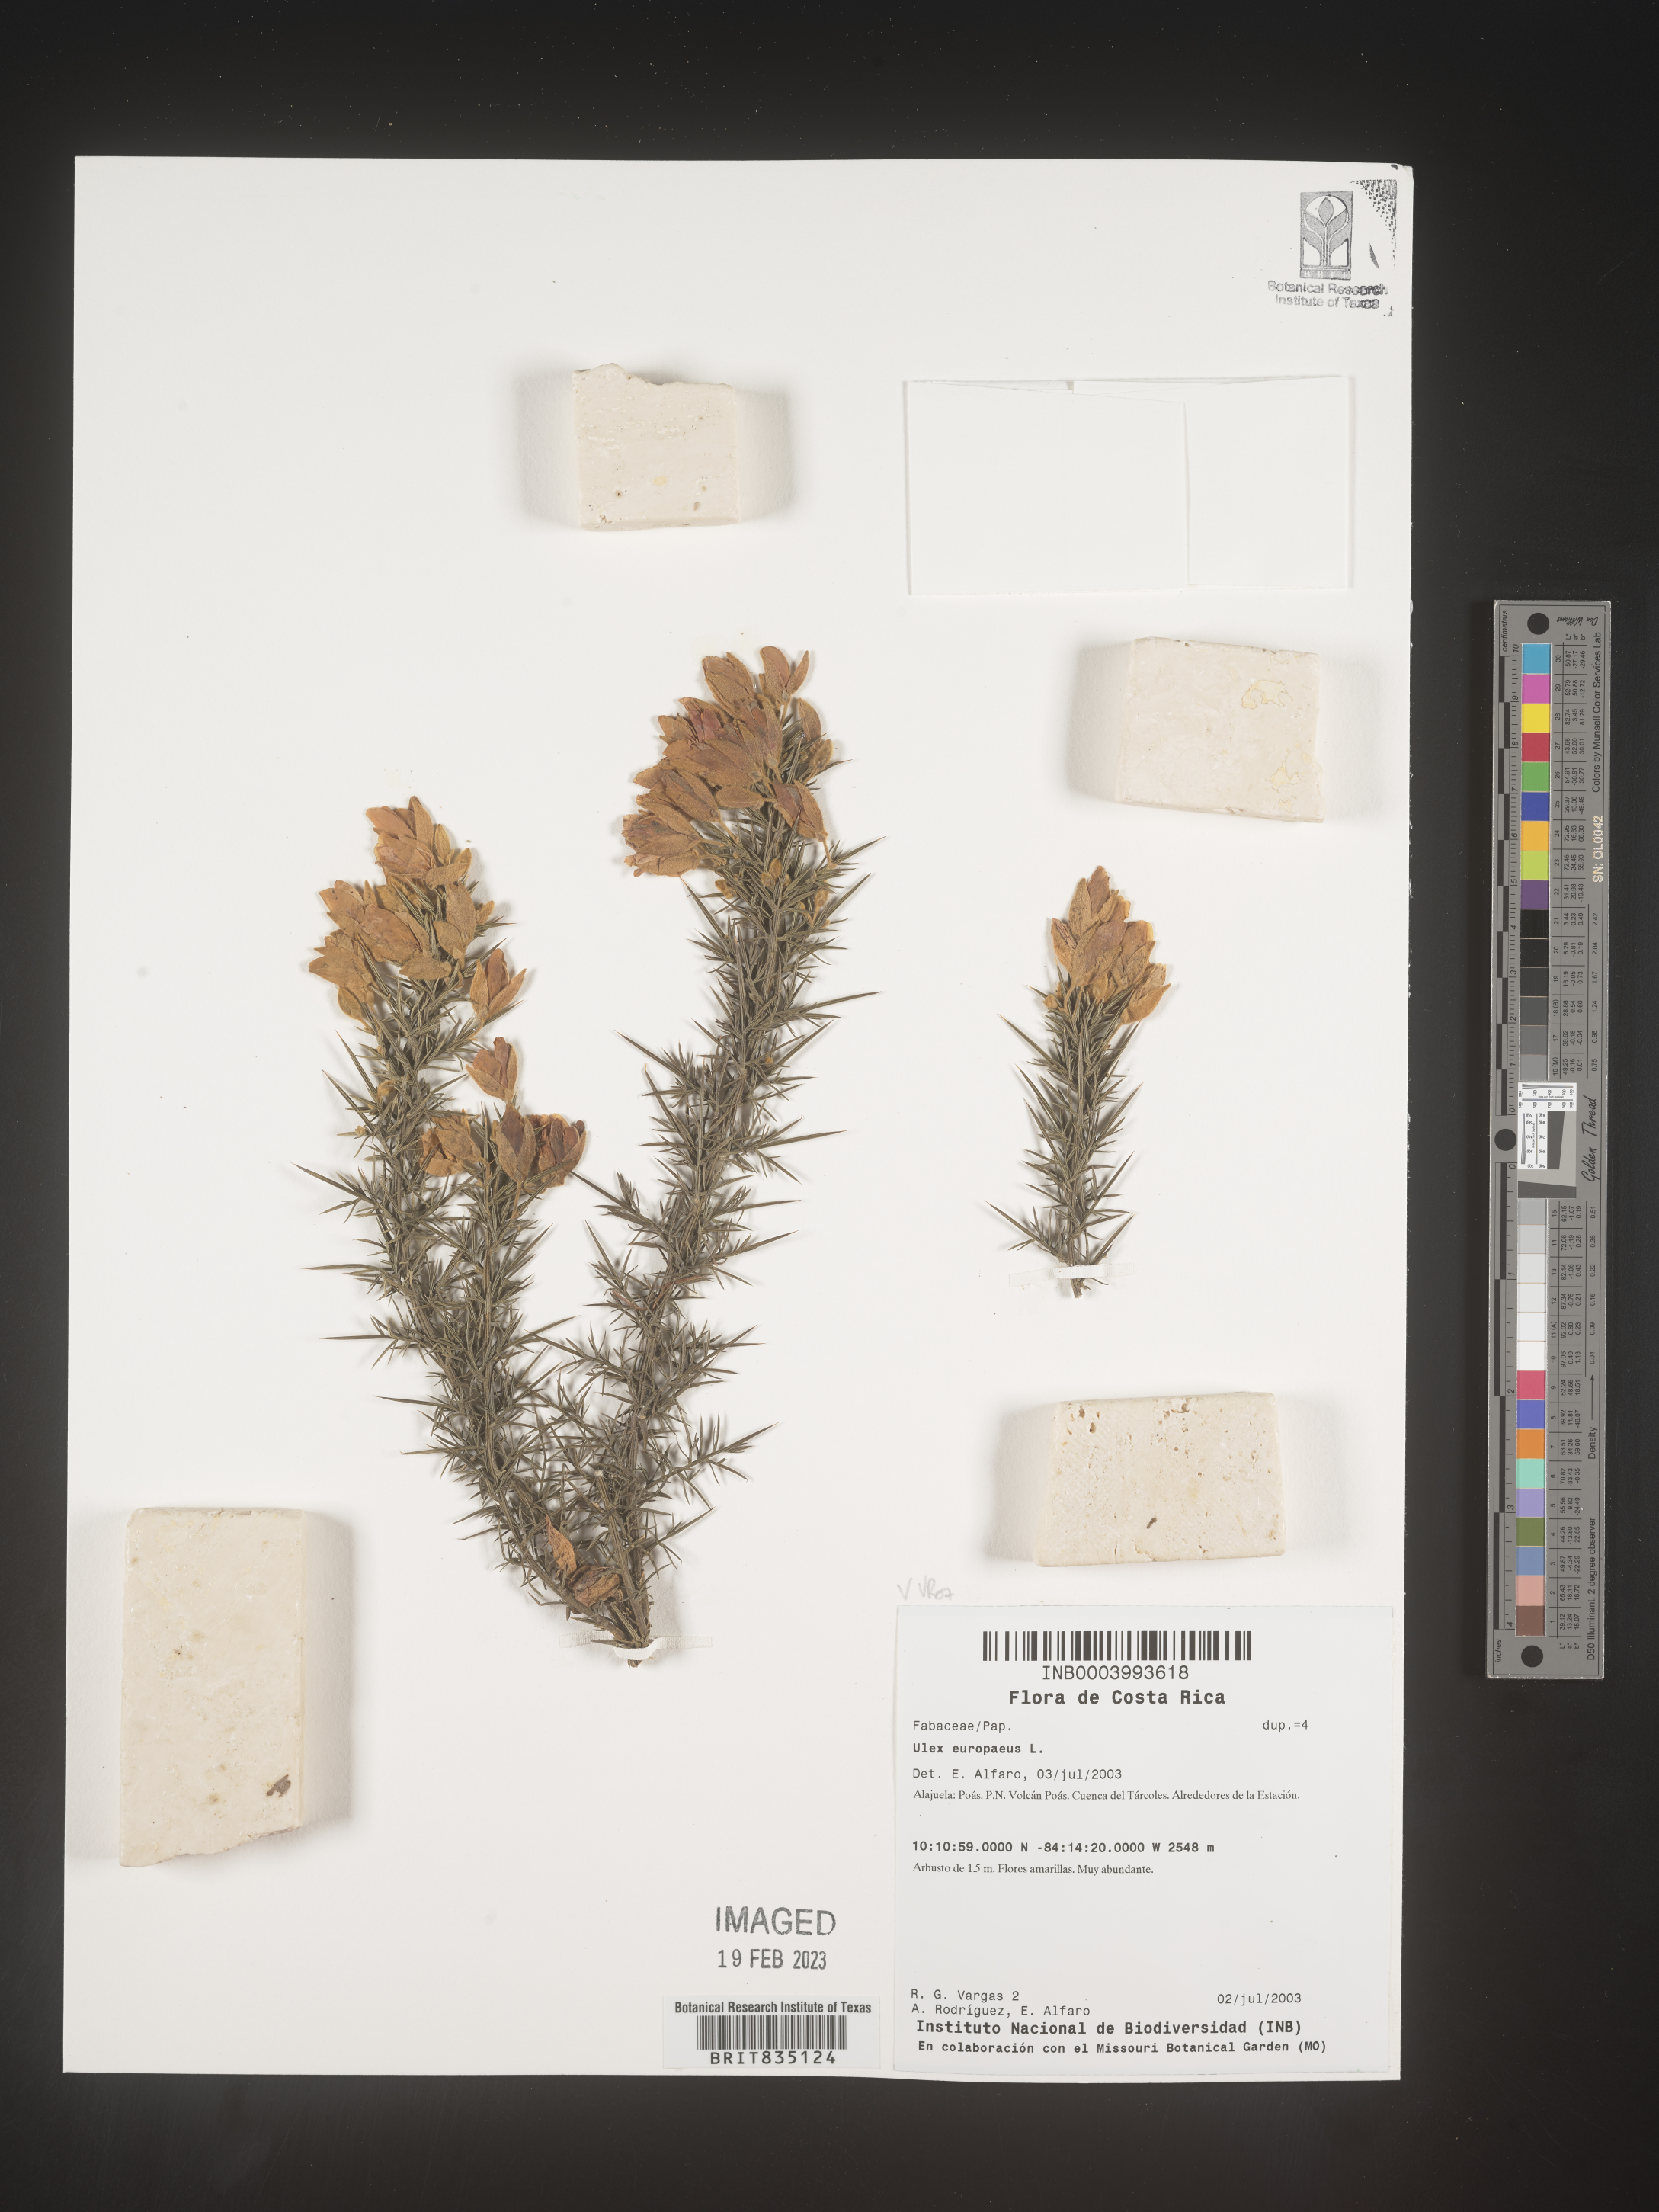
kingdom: Plantae
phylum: Tracheophyta
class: Magnoliopsida
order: Fabales
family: Fabaceae
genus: Ulex
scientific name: Ulex
